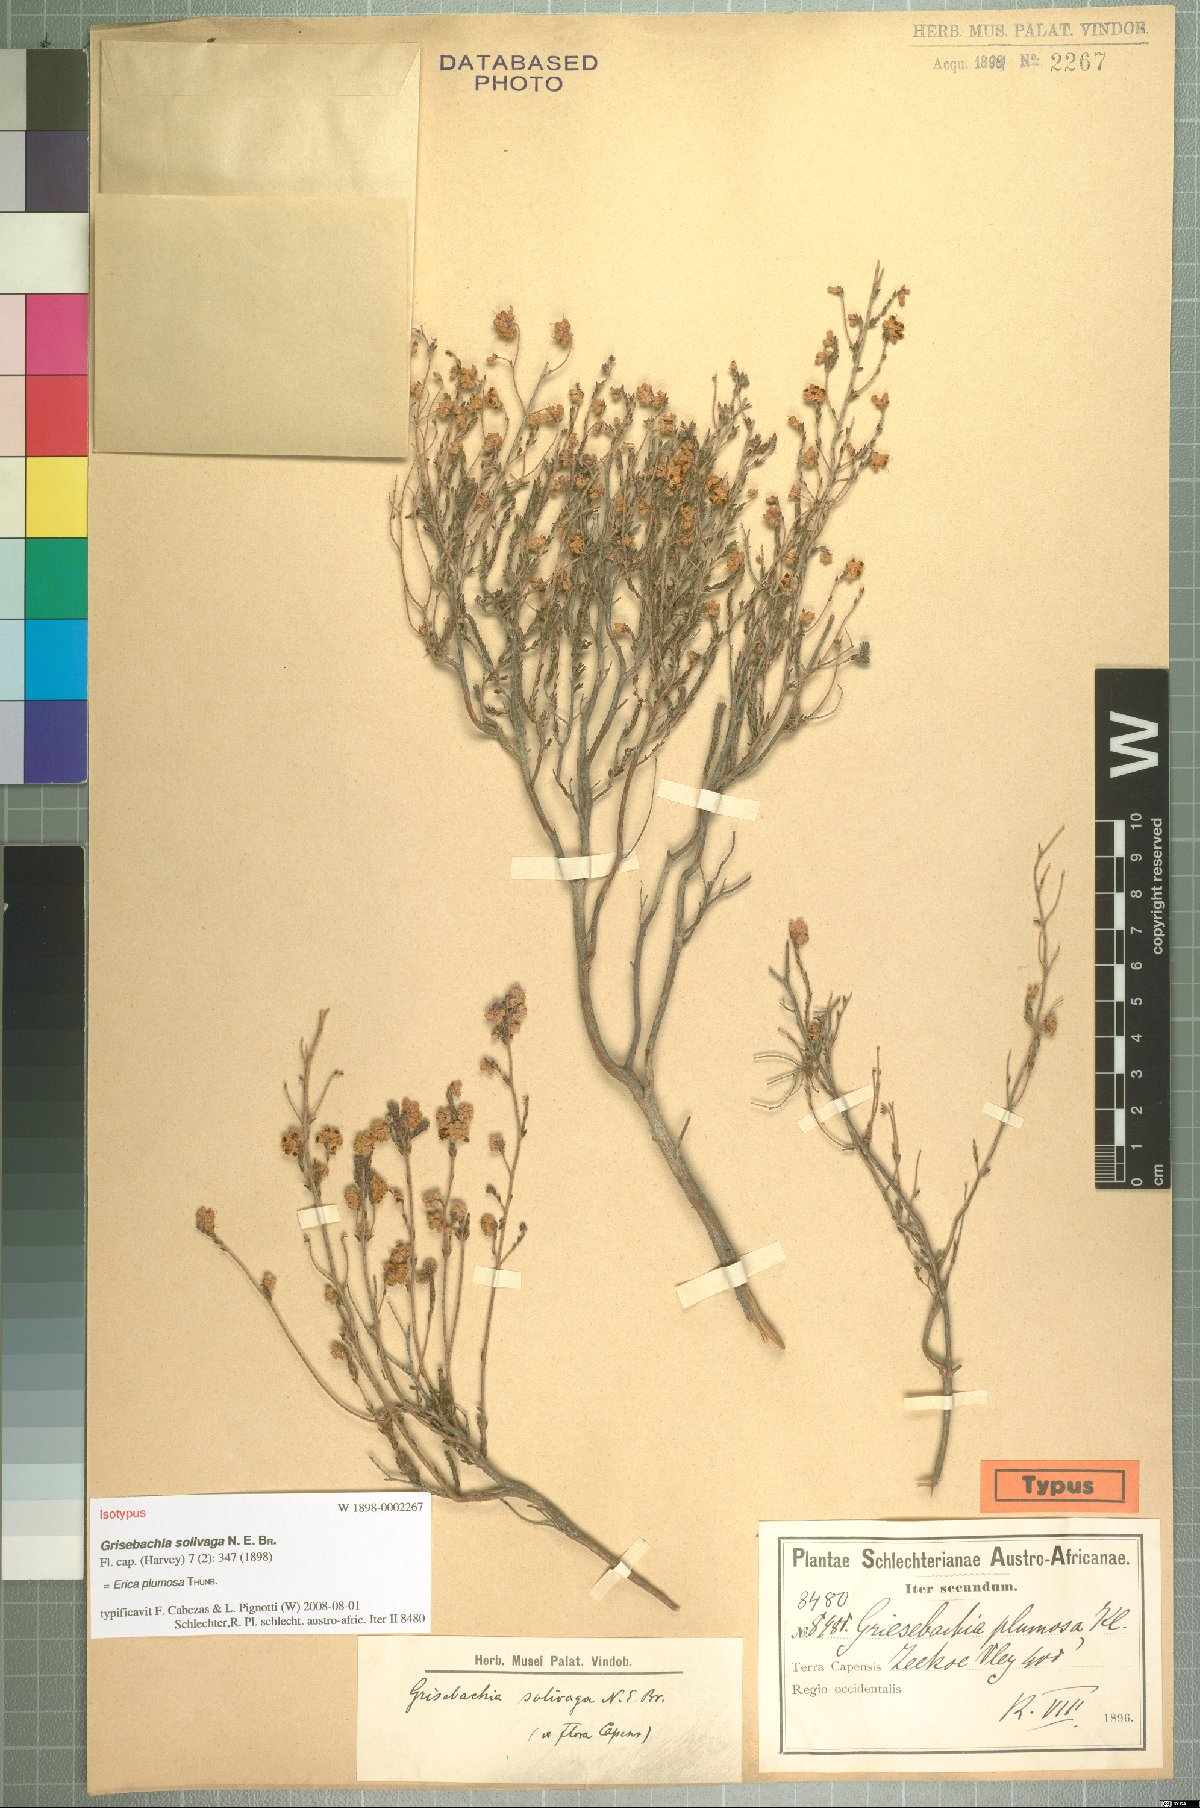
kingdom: Plantae
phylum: Tracheophyta
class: Magnoliopsida
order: Ericales
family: Ericaceae
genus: Erica
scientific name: Erica plumosa
